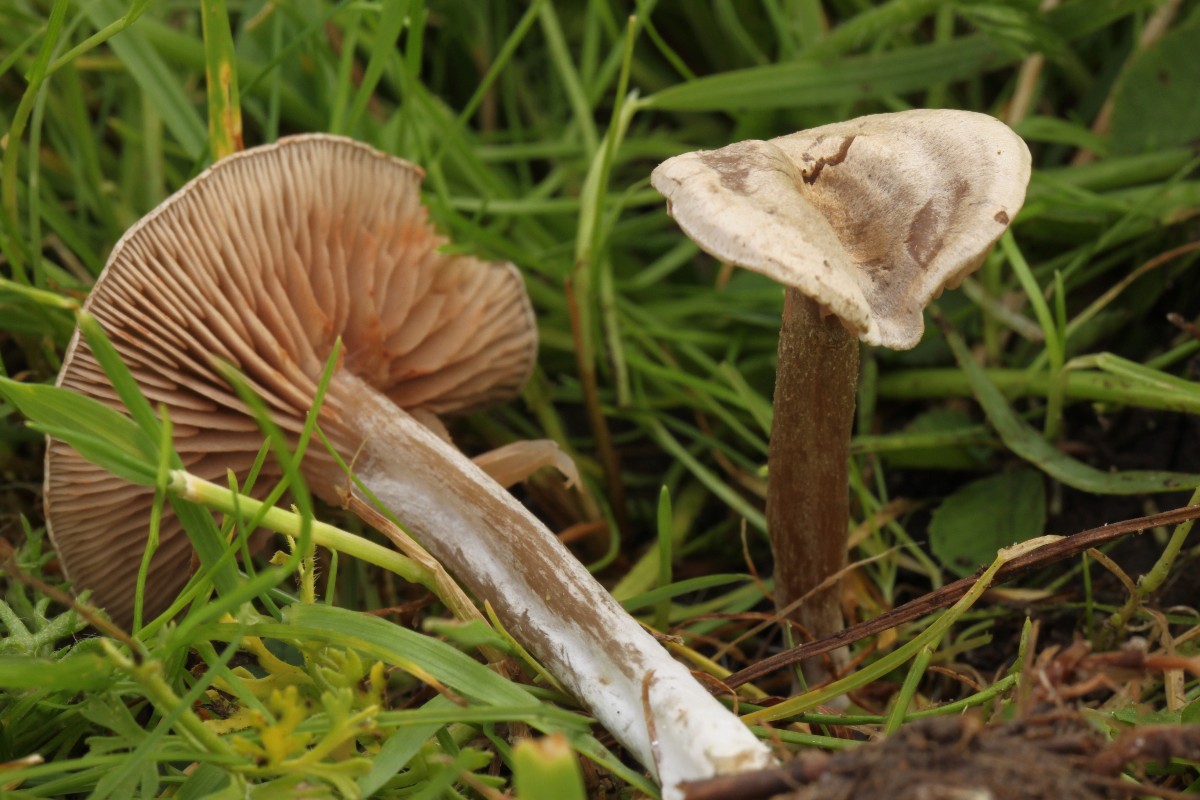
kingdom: Fungi
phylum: Basidiomycota
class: Agaricomycetes
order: Agaricales
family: Entolomataceae
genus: Entoloma
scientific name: Entoloma korhonenii
